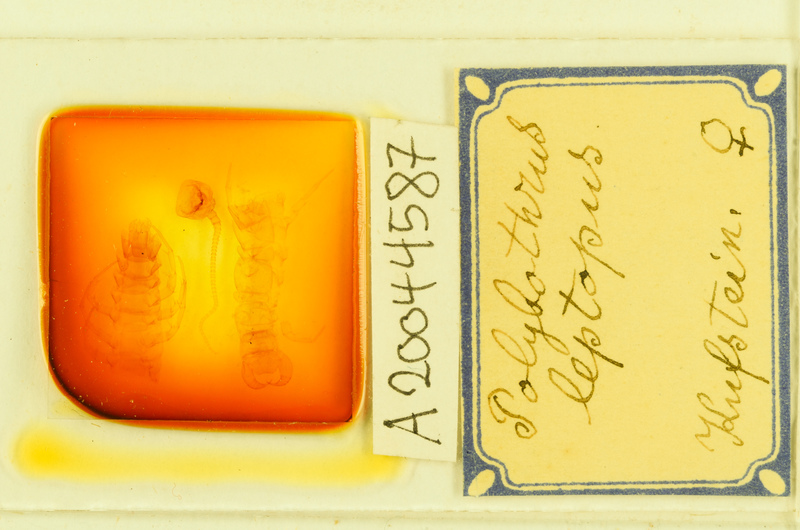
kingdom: Animalia
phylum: Arthropoda
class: Chilopoda
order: Lithobiomorpha
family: Lithobiidae
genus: Polybothrus
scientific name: Polybothrus leptopus
